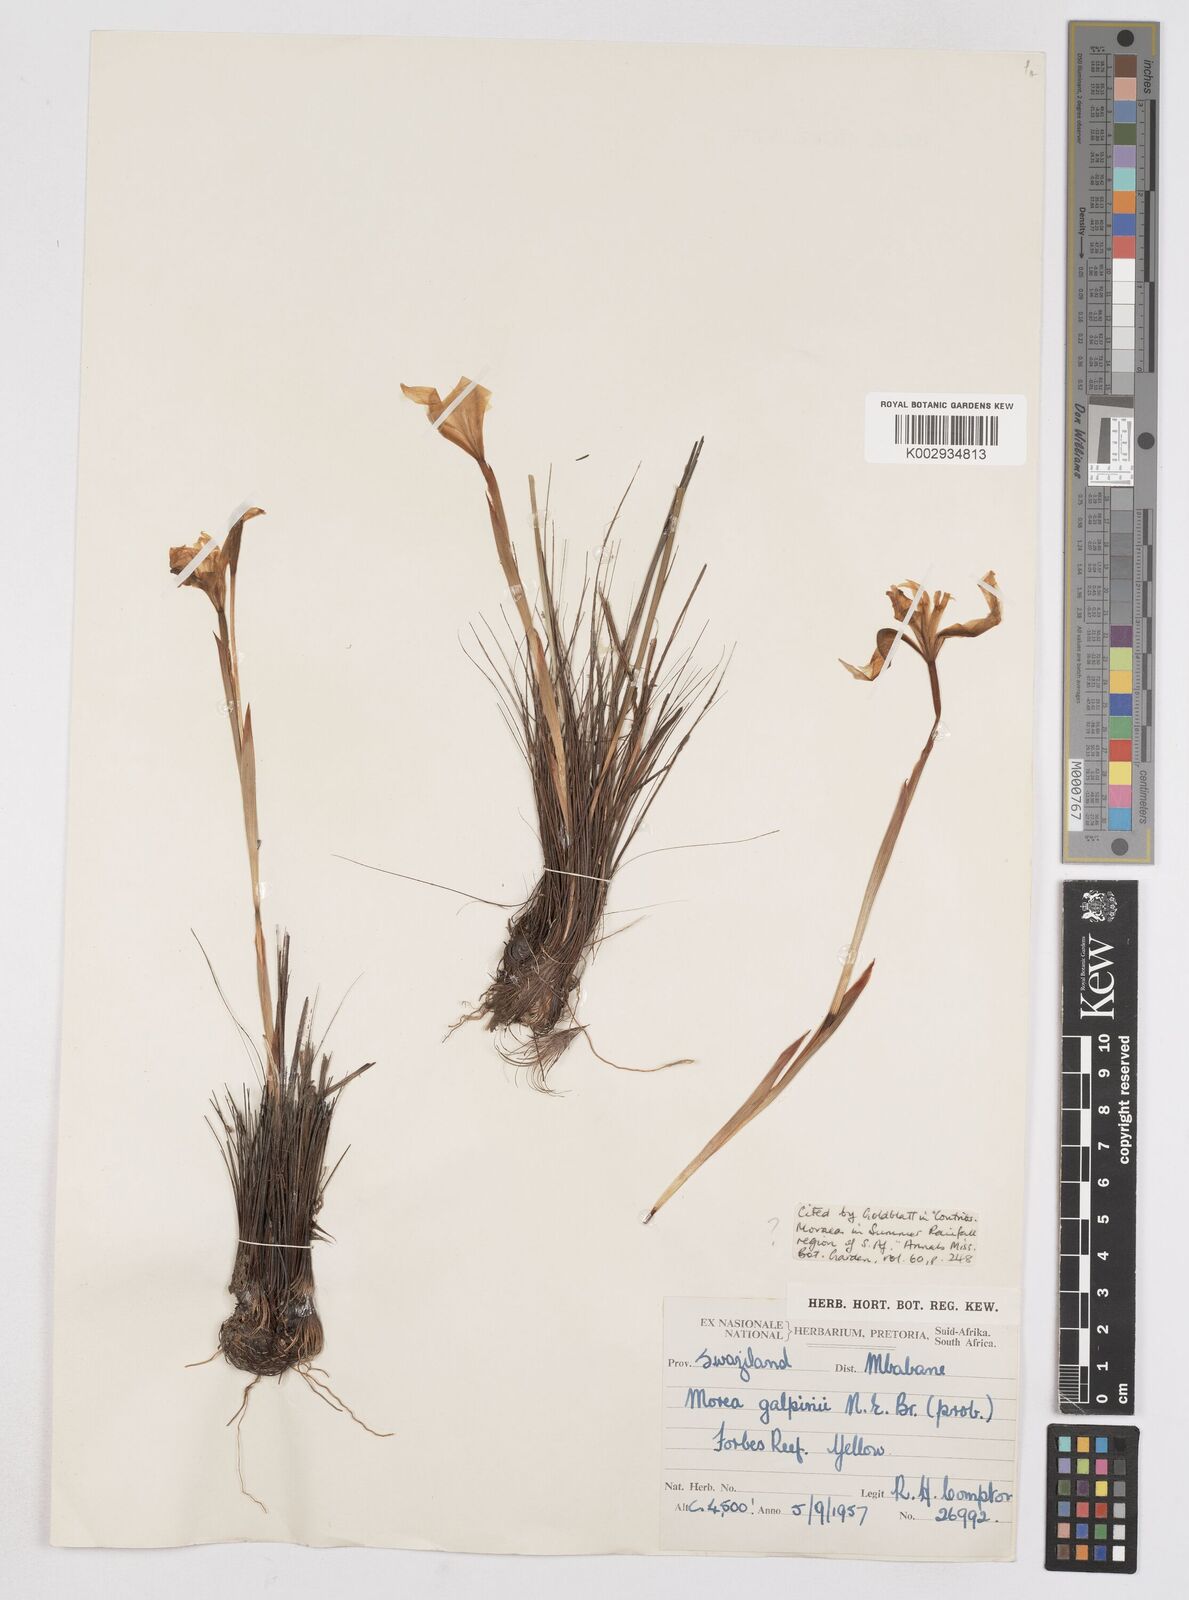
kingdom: Plantae
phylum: Tracheophyta
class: Liliopsida
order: Asparagales
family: Iridaceae
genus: Moraea
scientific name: Moraea galpinii
